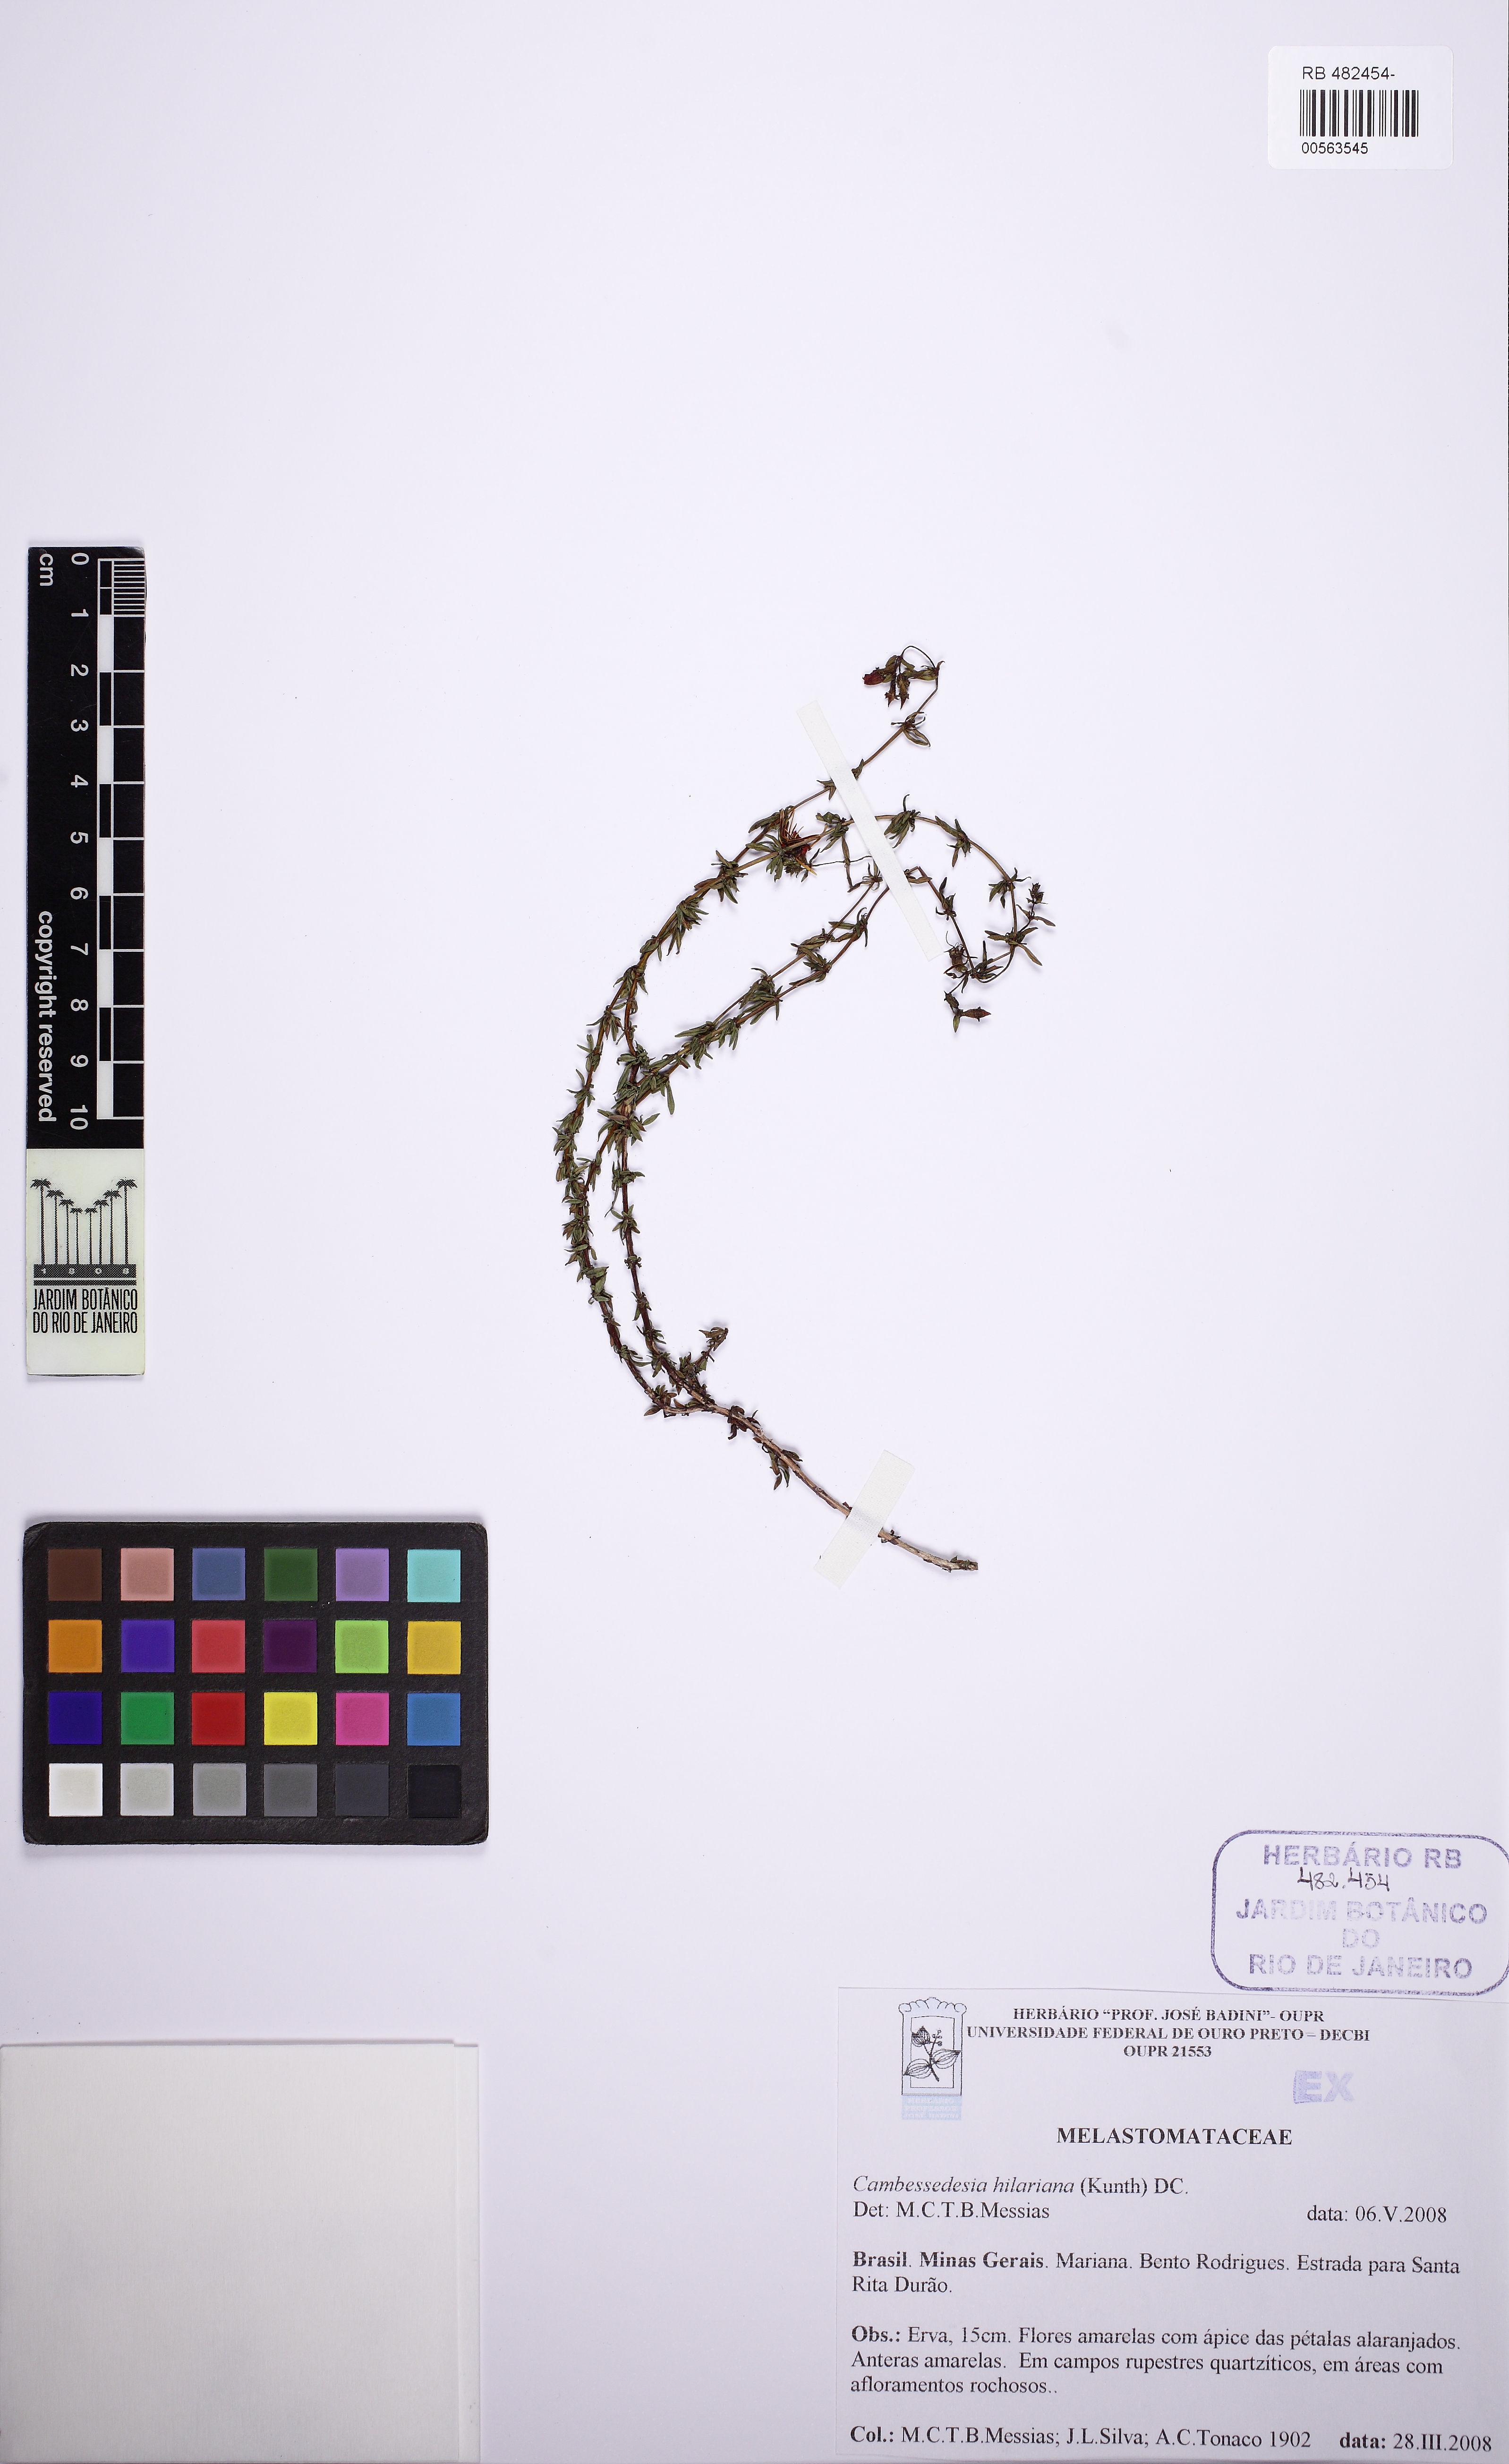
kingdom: Plantae
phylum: Tracheophyta
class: Magnoliopsida
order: Myrtales
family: Melastomataceae
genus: Cambessedesia
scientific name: Cambessedesia hilariana
